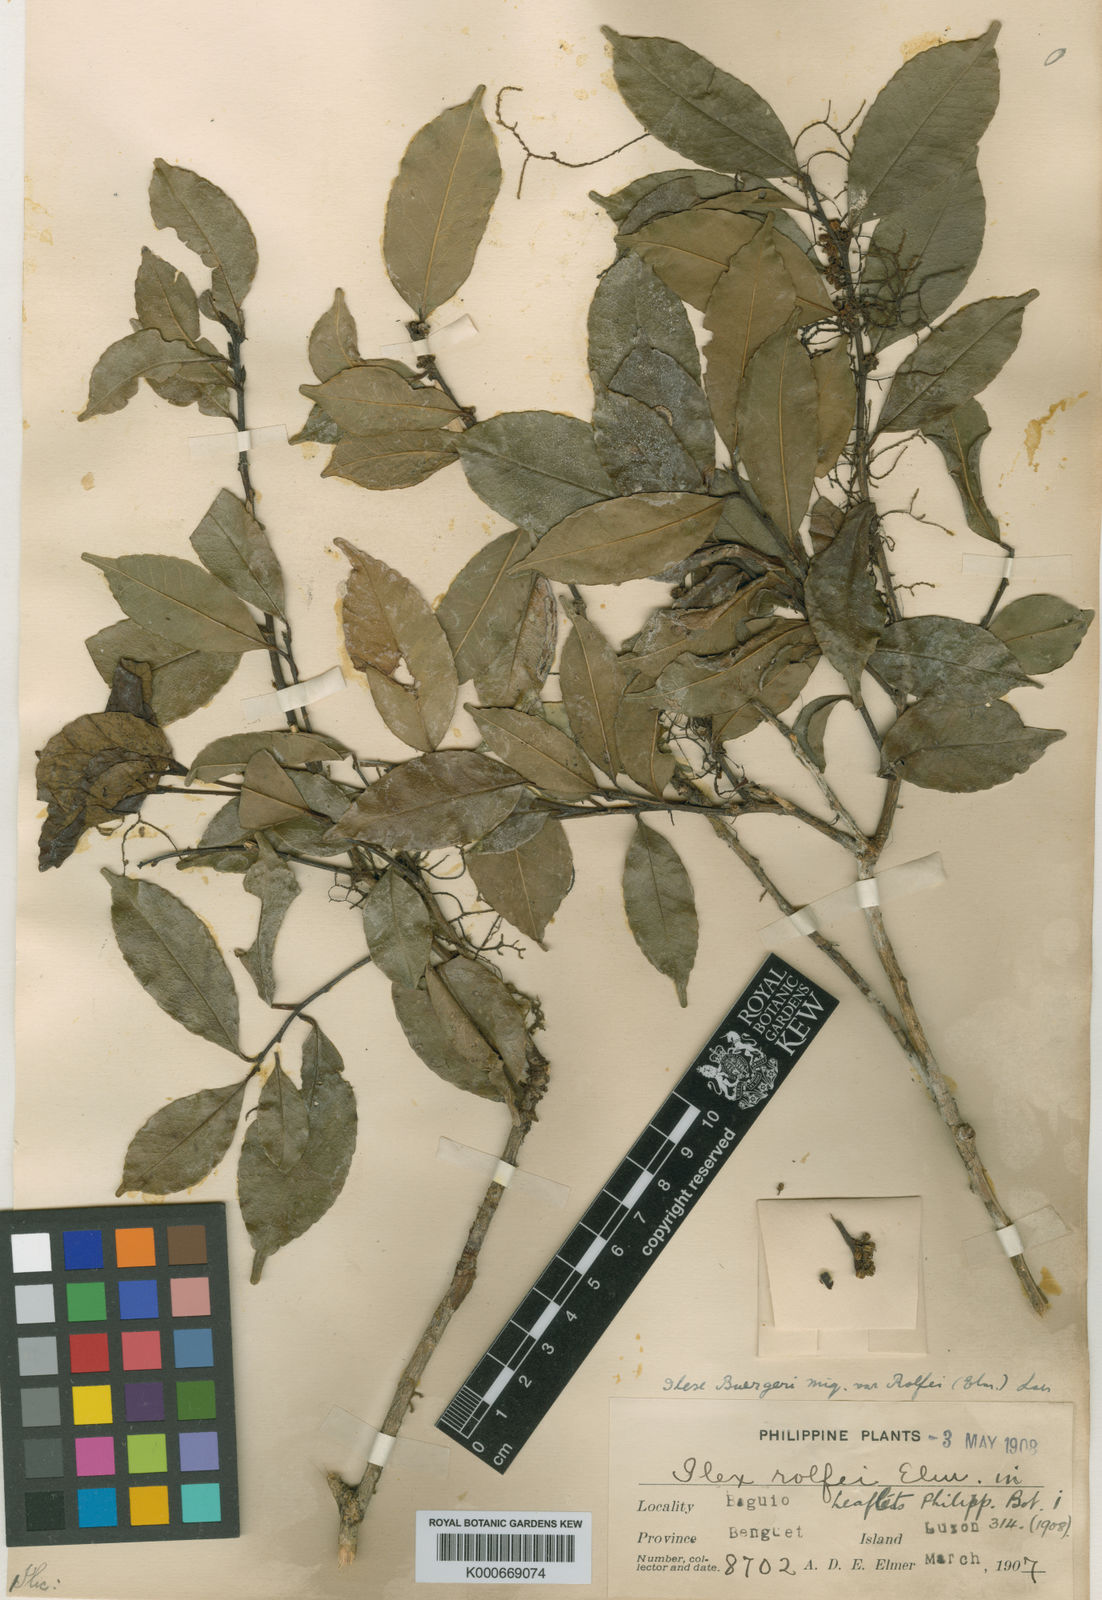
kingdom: Plantae
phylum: Tracheophyta
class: Magnoliopsida
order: Aquifoliales
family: Aquifoliaceae
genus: Ilex
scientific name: Ilex buergeri
